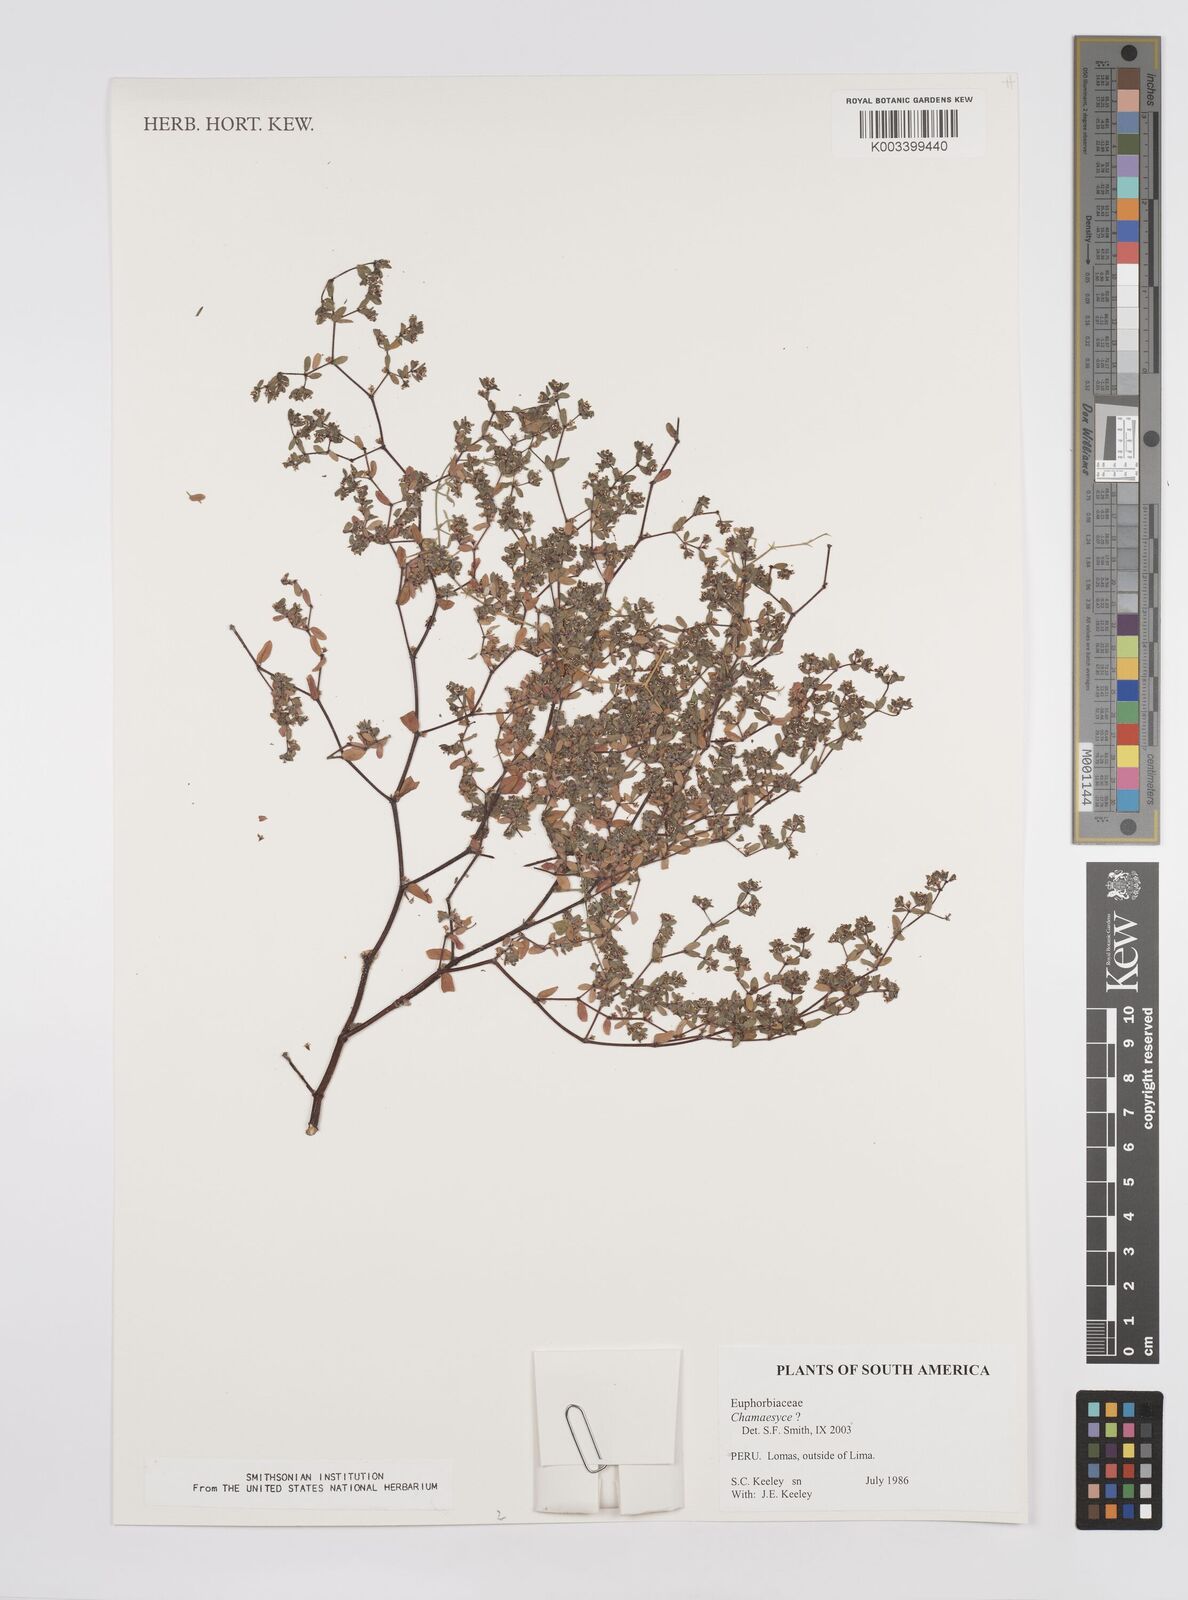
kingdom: Plantae
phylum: Tracheophyta
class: Magnoliopsida
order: Malpighiales
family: Euphorbiaceae
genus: Euphorbia
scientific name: Euphorbia
